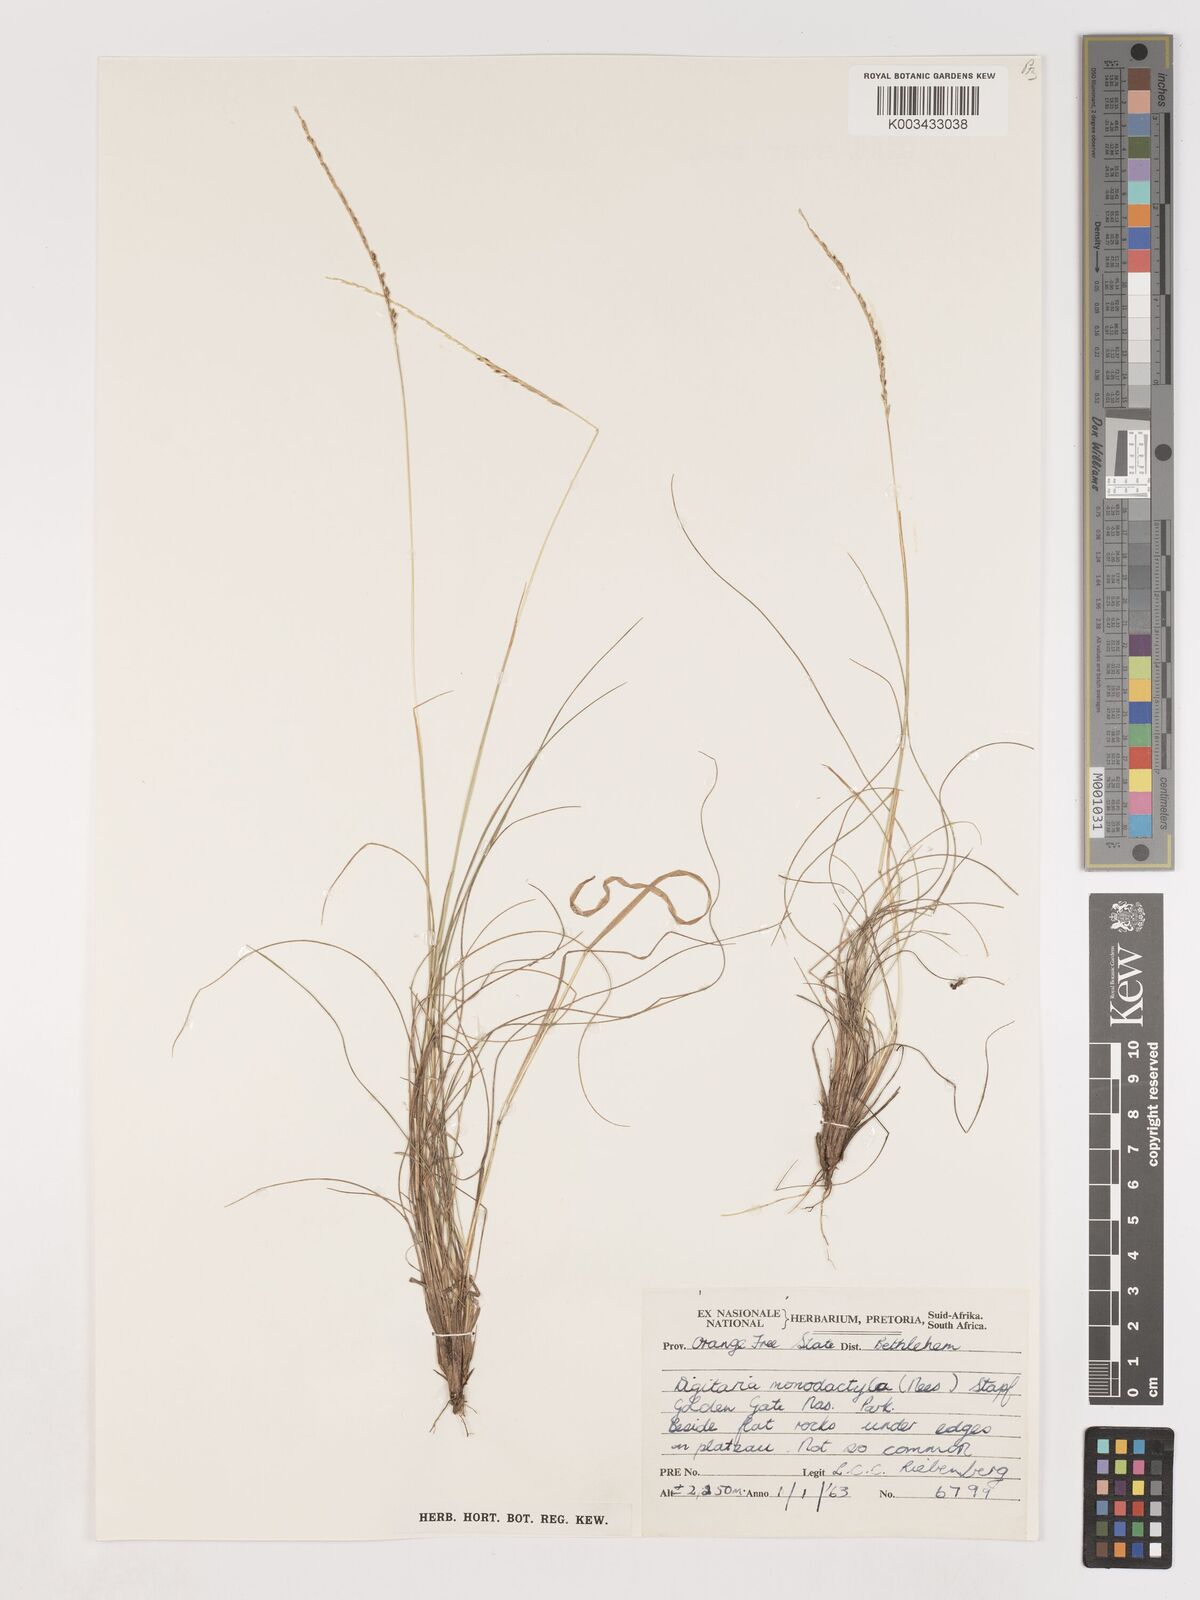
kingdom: Plantae
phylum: Tracheophyta
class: Liliopsida
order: Poales
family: Poaceae
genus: Digitaria
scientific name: Digitaria monodactyla
